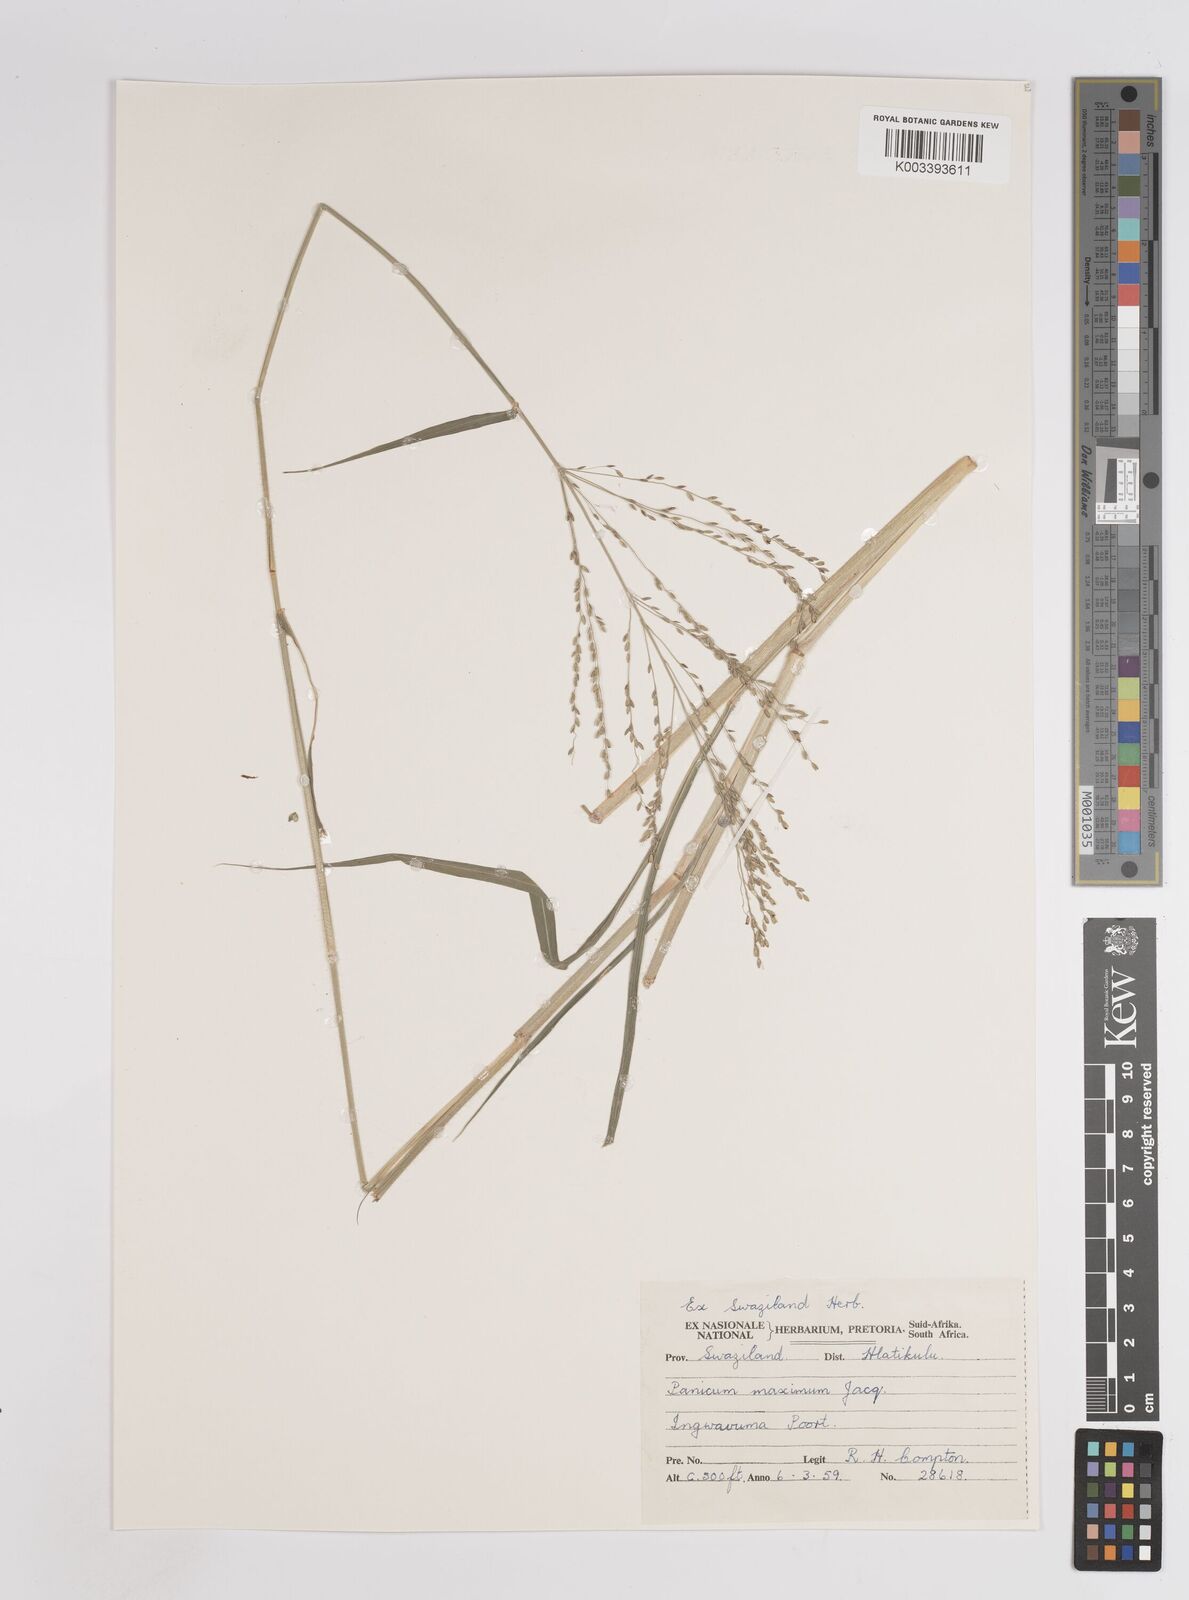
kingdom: Plantae
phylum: Tracheophyta
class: Liliopsida
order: Poales
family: Poaceae
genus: Megathyrsus
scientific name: Megathyrsus maximus
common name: Guineagrass
